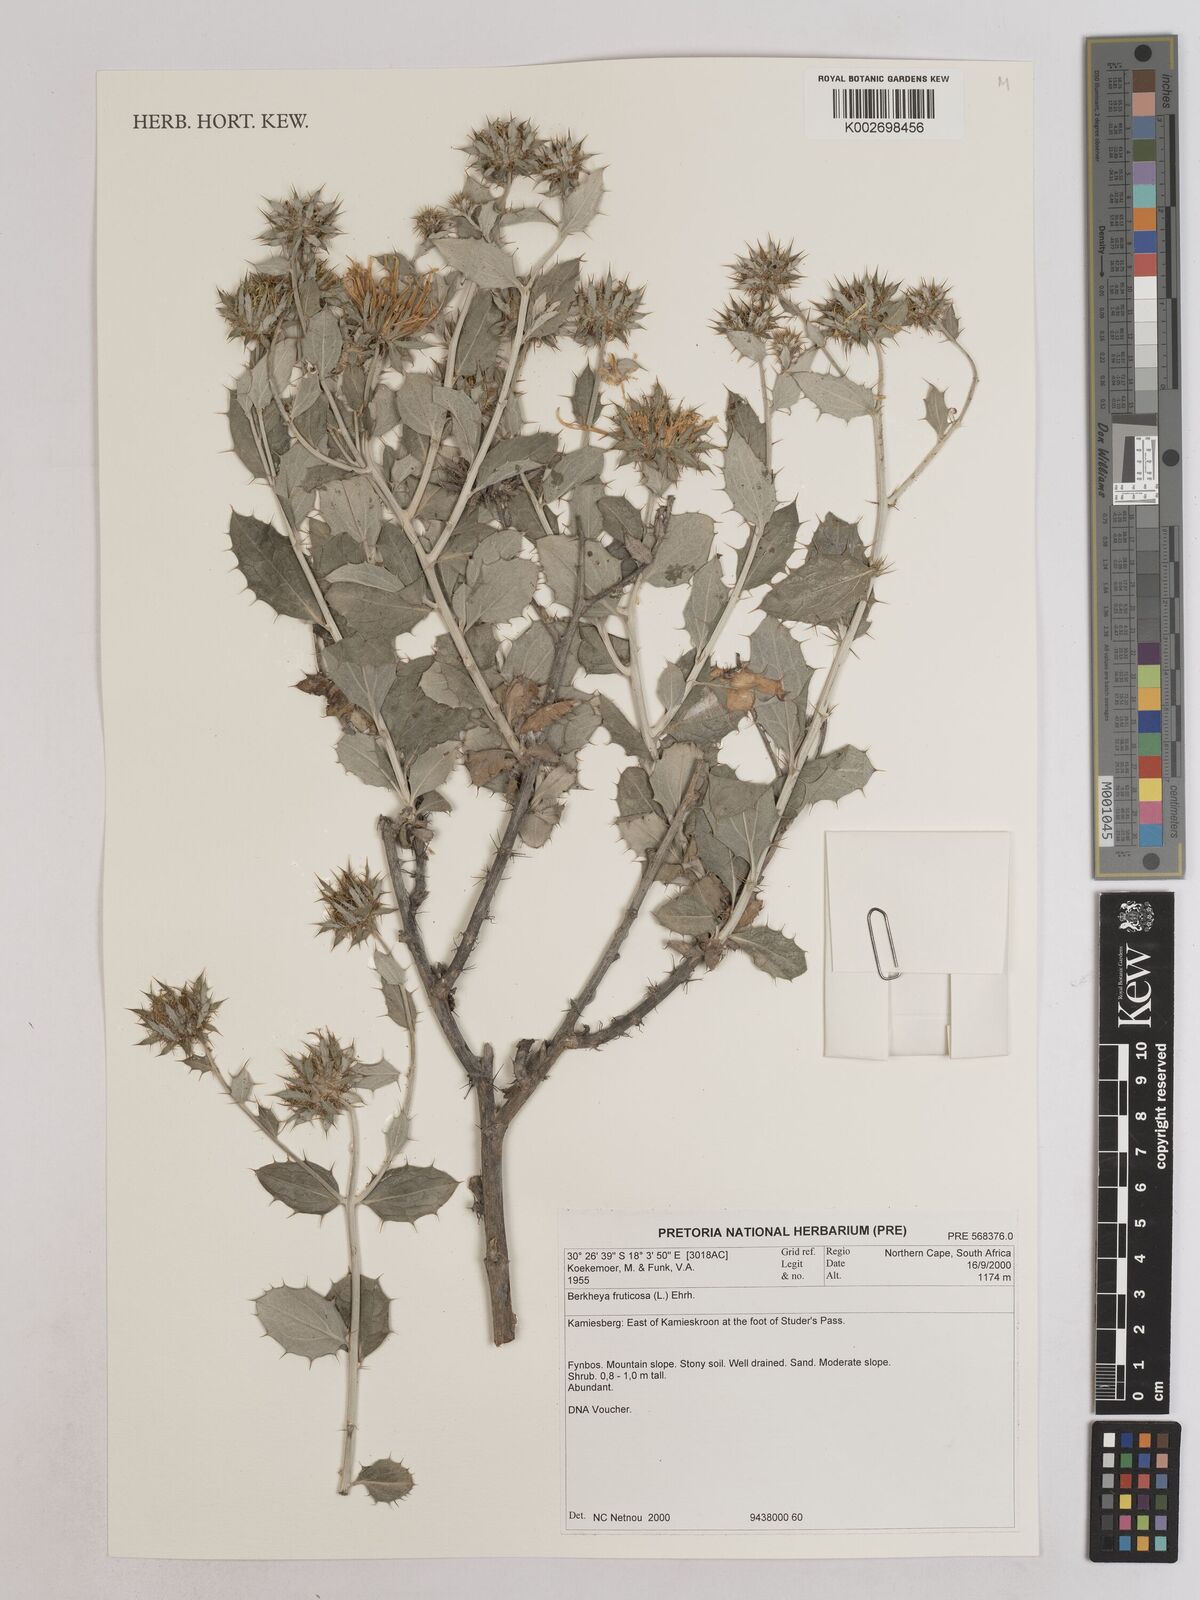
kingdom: Plantae
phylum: Tracheophyta
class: Magnoliopsida
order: Asterales
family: Asteraceae
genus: Berkheya
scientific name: Berkheya fruticosa
